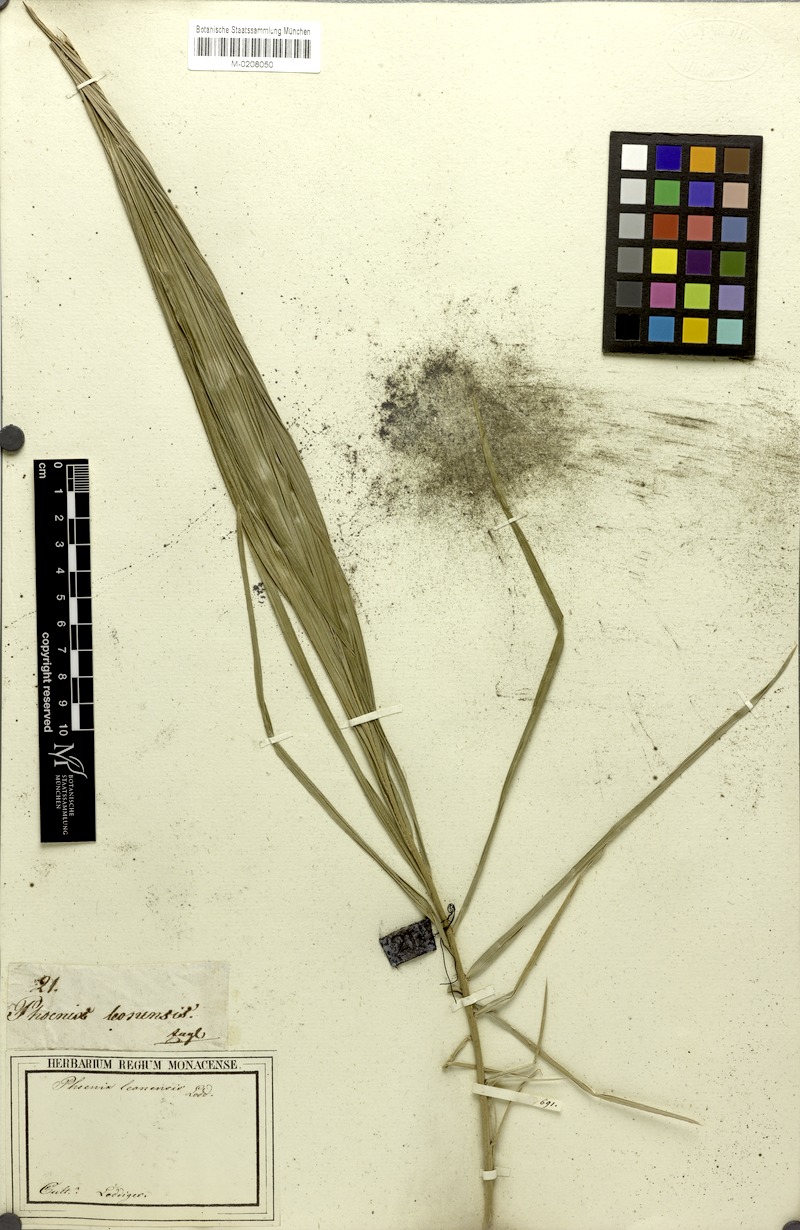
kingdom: Plantae
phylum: Tracheophyta
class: Liliopsida
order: Arecales
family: Arecaceae
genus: Phoenix
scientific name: Phoenix reclinata
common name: Senegal date palm
